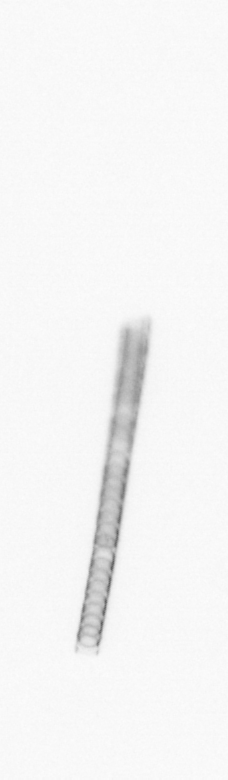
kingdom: Chromista
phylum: Ochrophyta
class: Bacillariophyceae
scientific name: Bacillariophyceae
